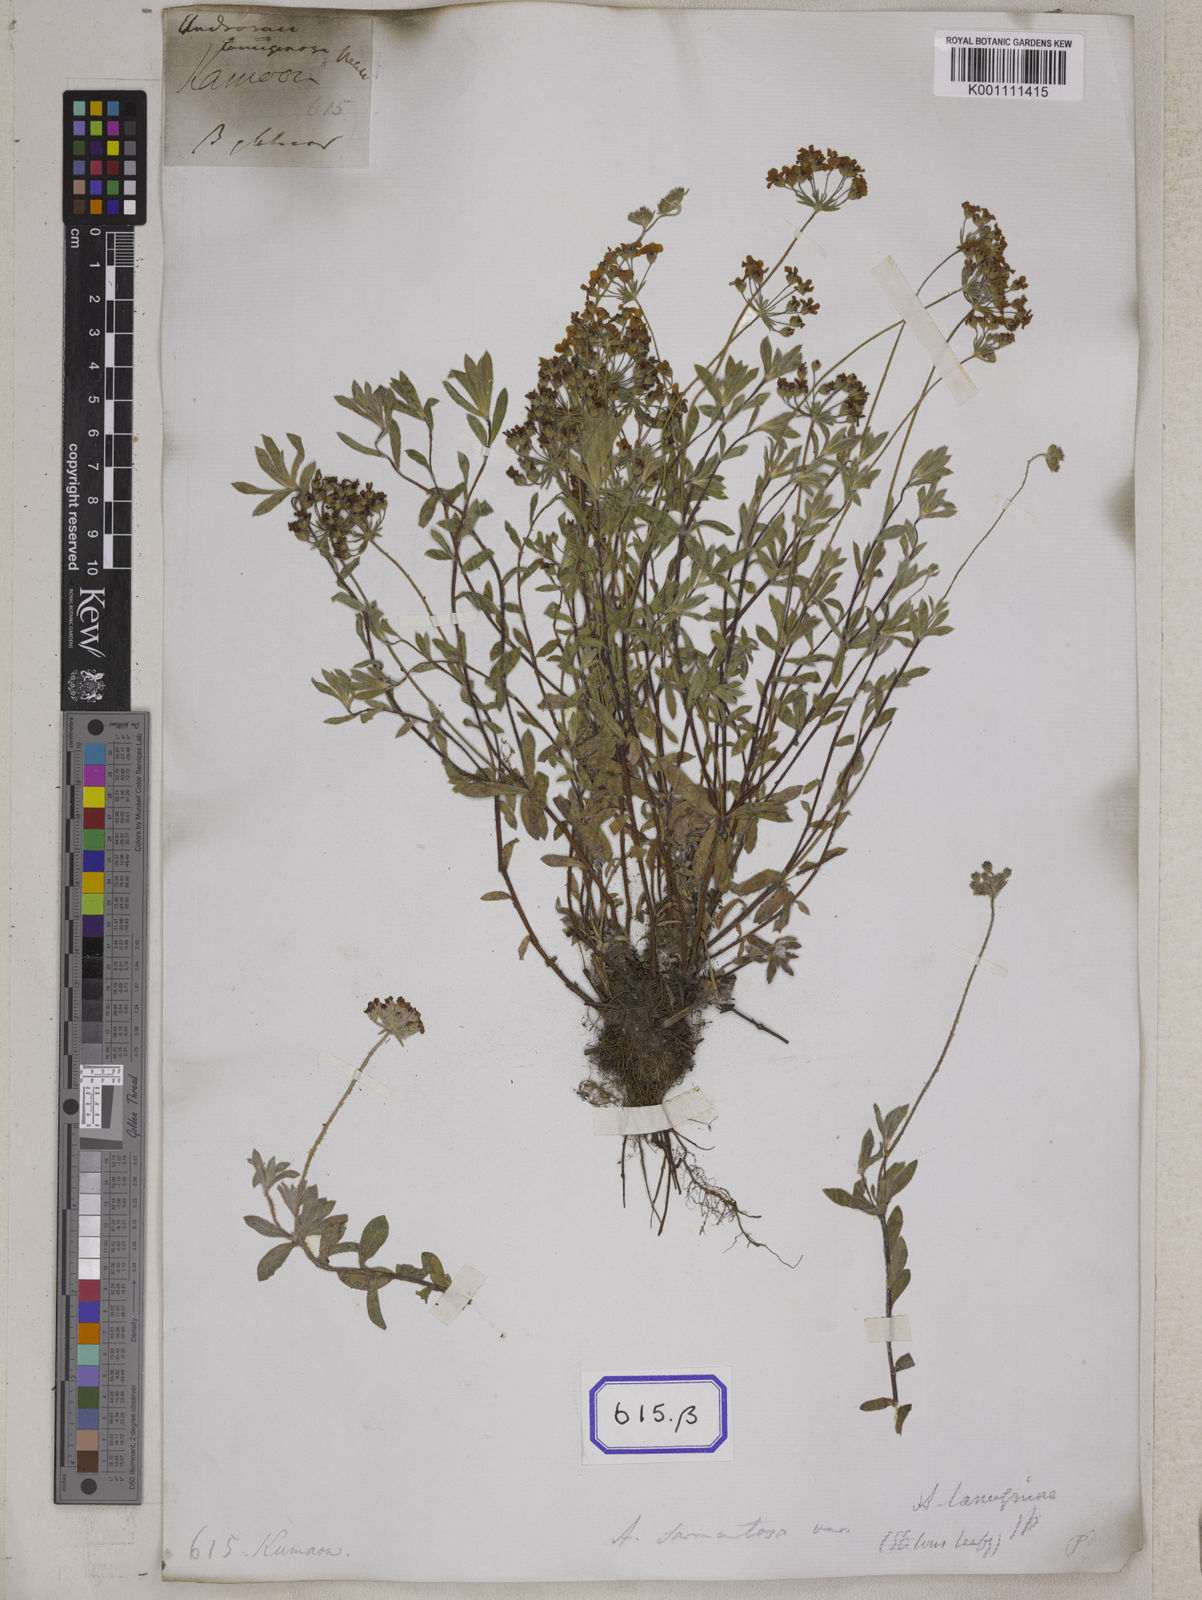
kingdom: Plantae
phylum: Tracheophyta
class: Magnoliopsida
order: Ericales
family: Primulaceae
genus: Androsace
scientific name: Androsace
